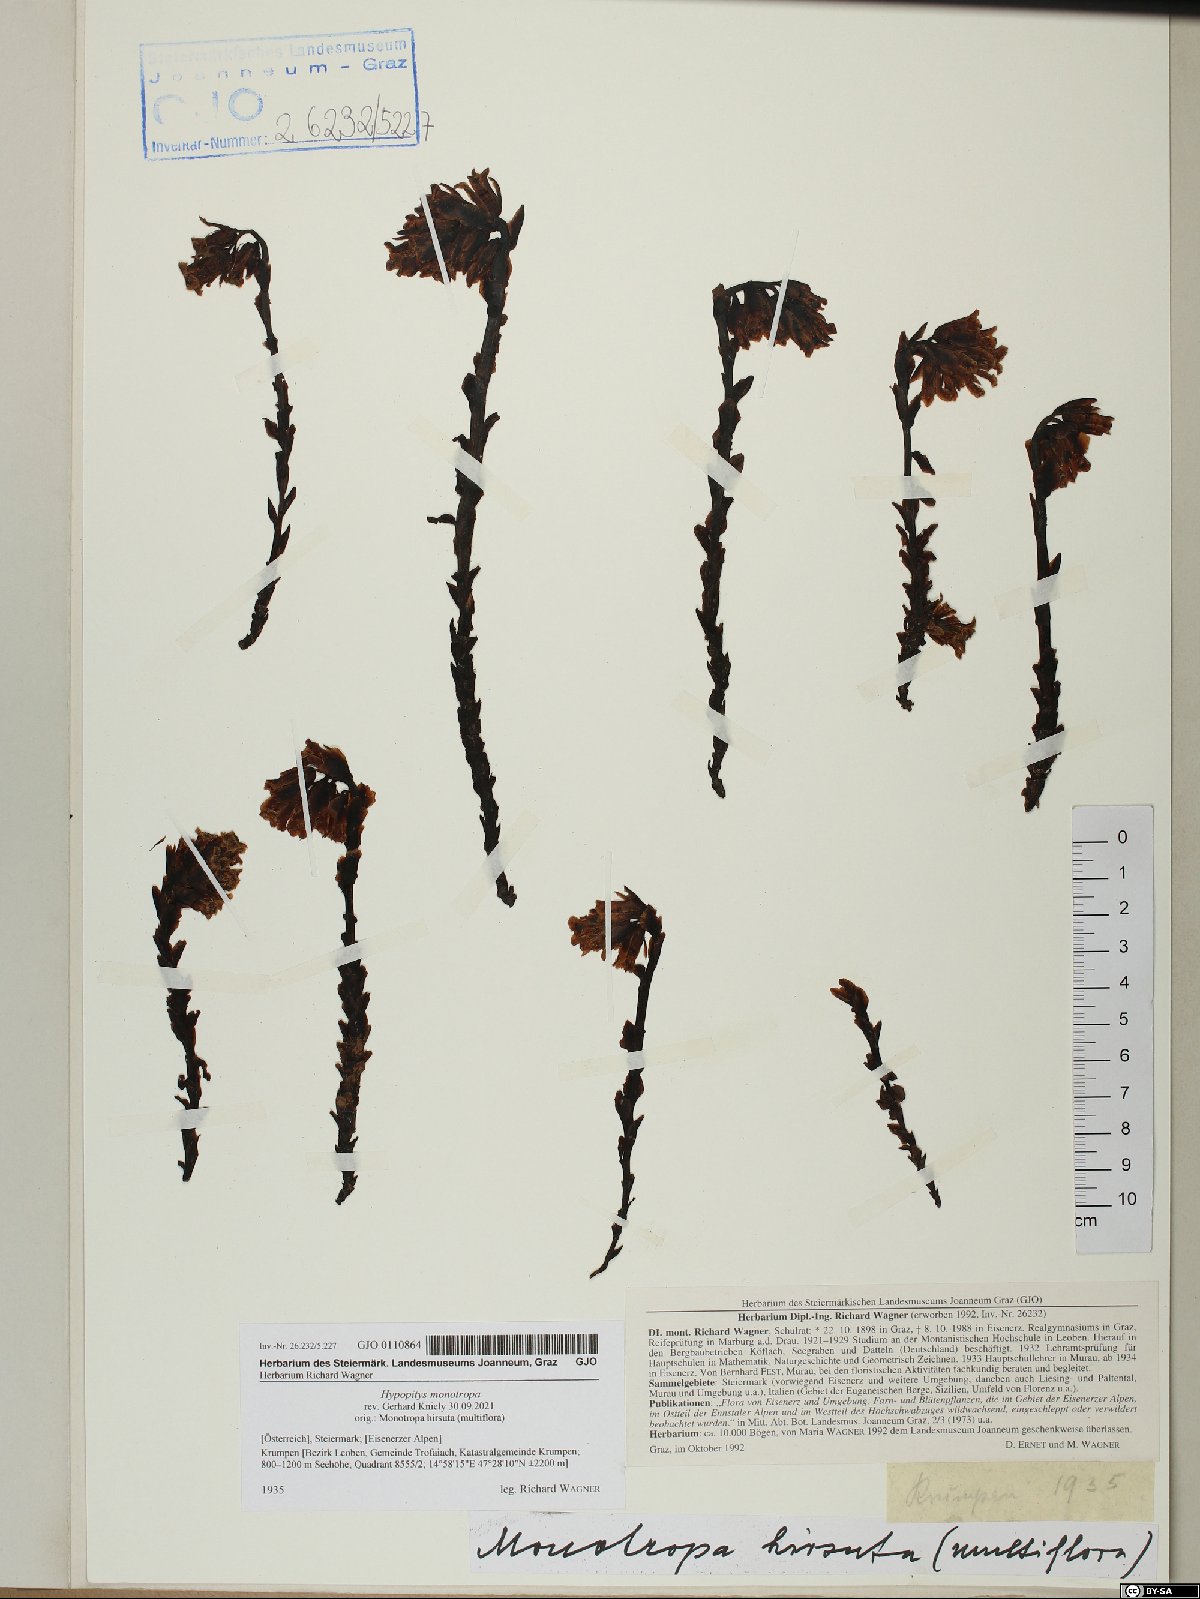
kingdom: Plantae
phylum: Tracheophyta
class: Magnoliopsida
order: Ericales
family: Ericaceae
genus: Hypopitys
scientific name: Hypopitys monotropa
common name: Yellow bird's-nest
